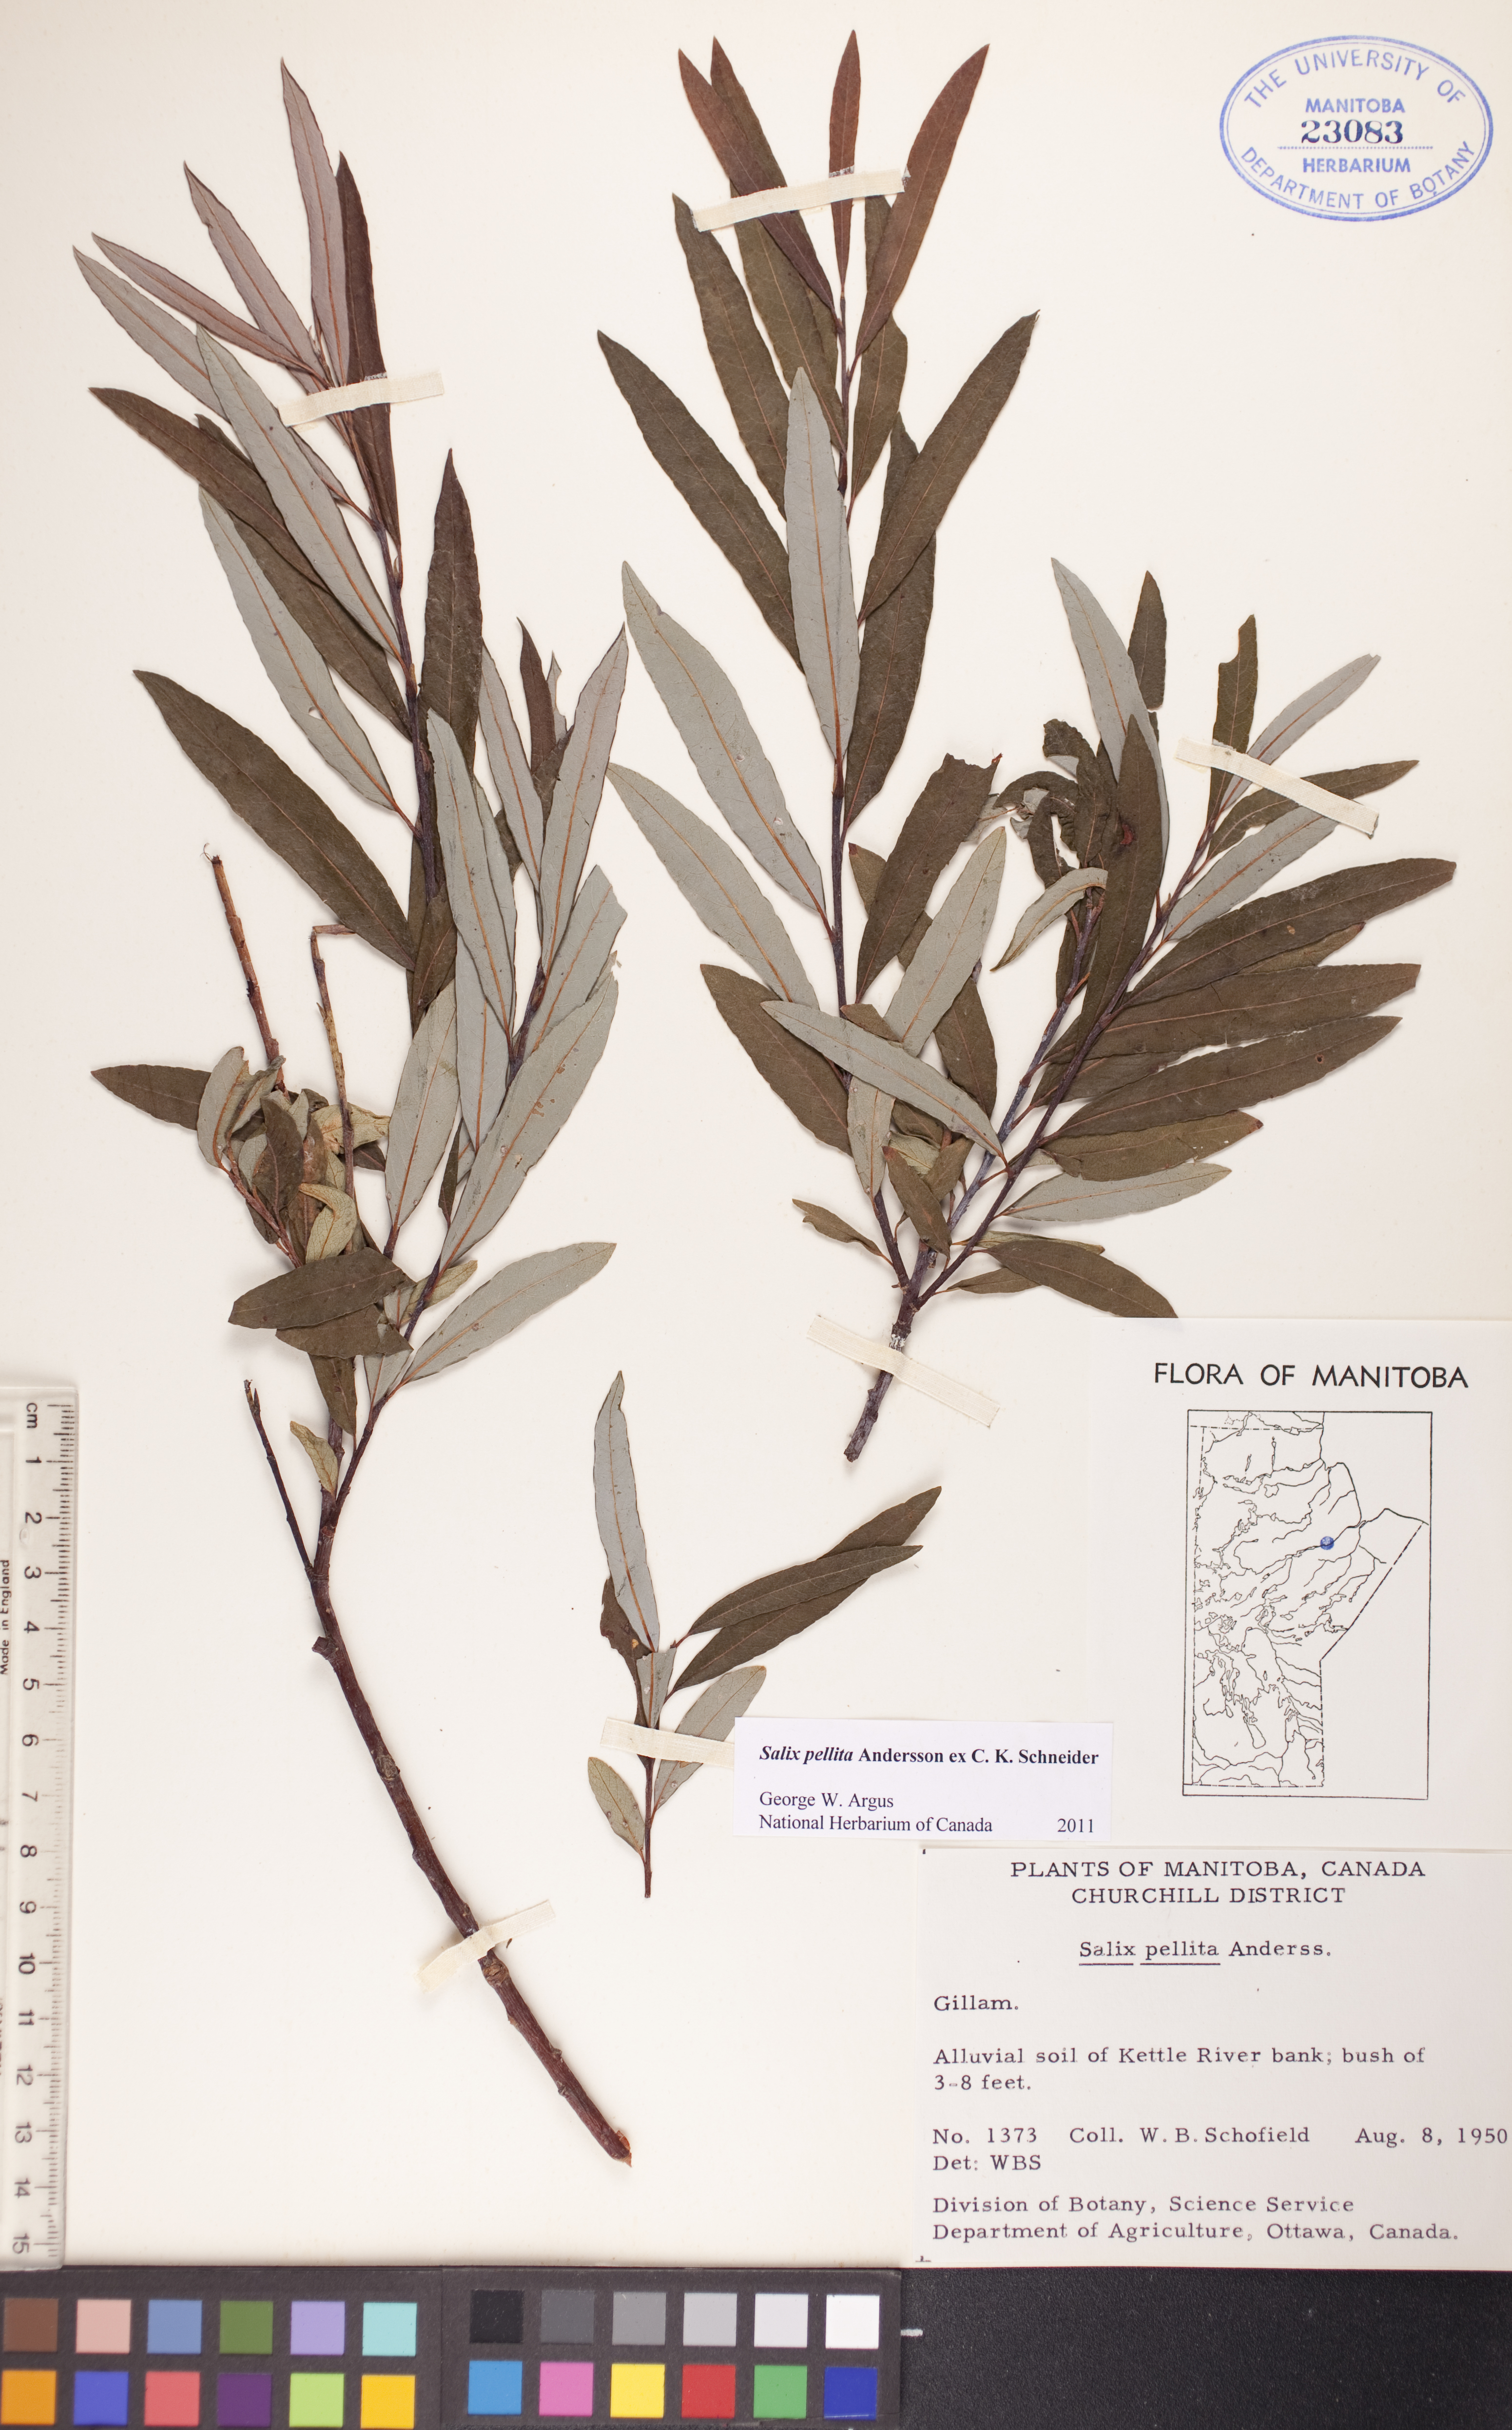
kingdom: Plantae
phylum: Tracheophyta
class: Magnoliopsida
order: Malpighiales
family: Salicaceae
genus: Salix
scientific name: Salix pellita
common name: Satiny willow
